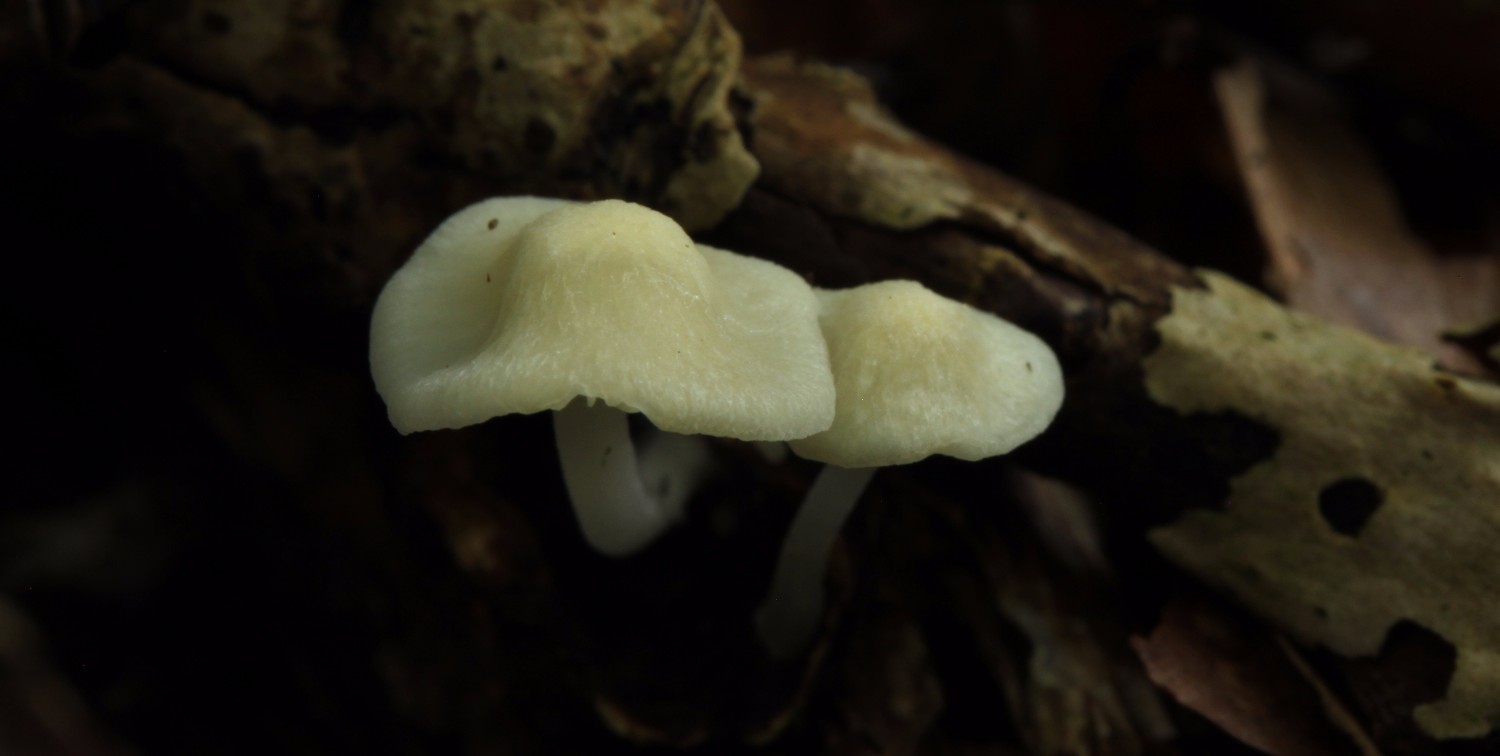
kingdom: Fungi
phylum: Basidiomycota
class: Agaricomycetes
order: Agaricales
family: Mycenaceae
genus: Atheniella
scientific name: Atheniella flavoalba
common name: gulhvid huesvamp
